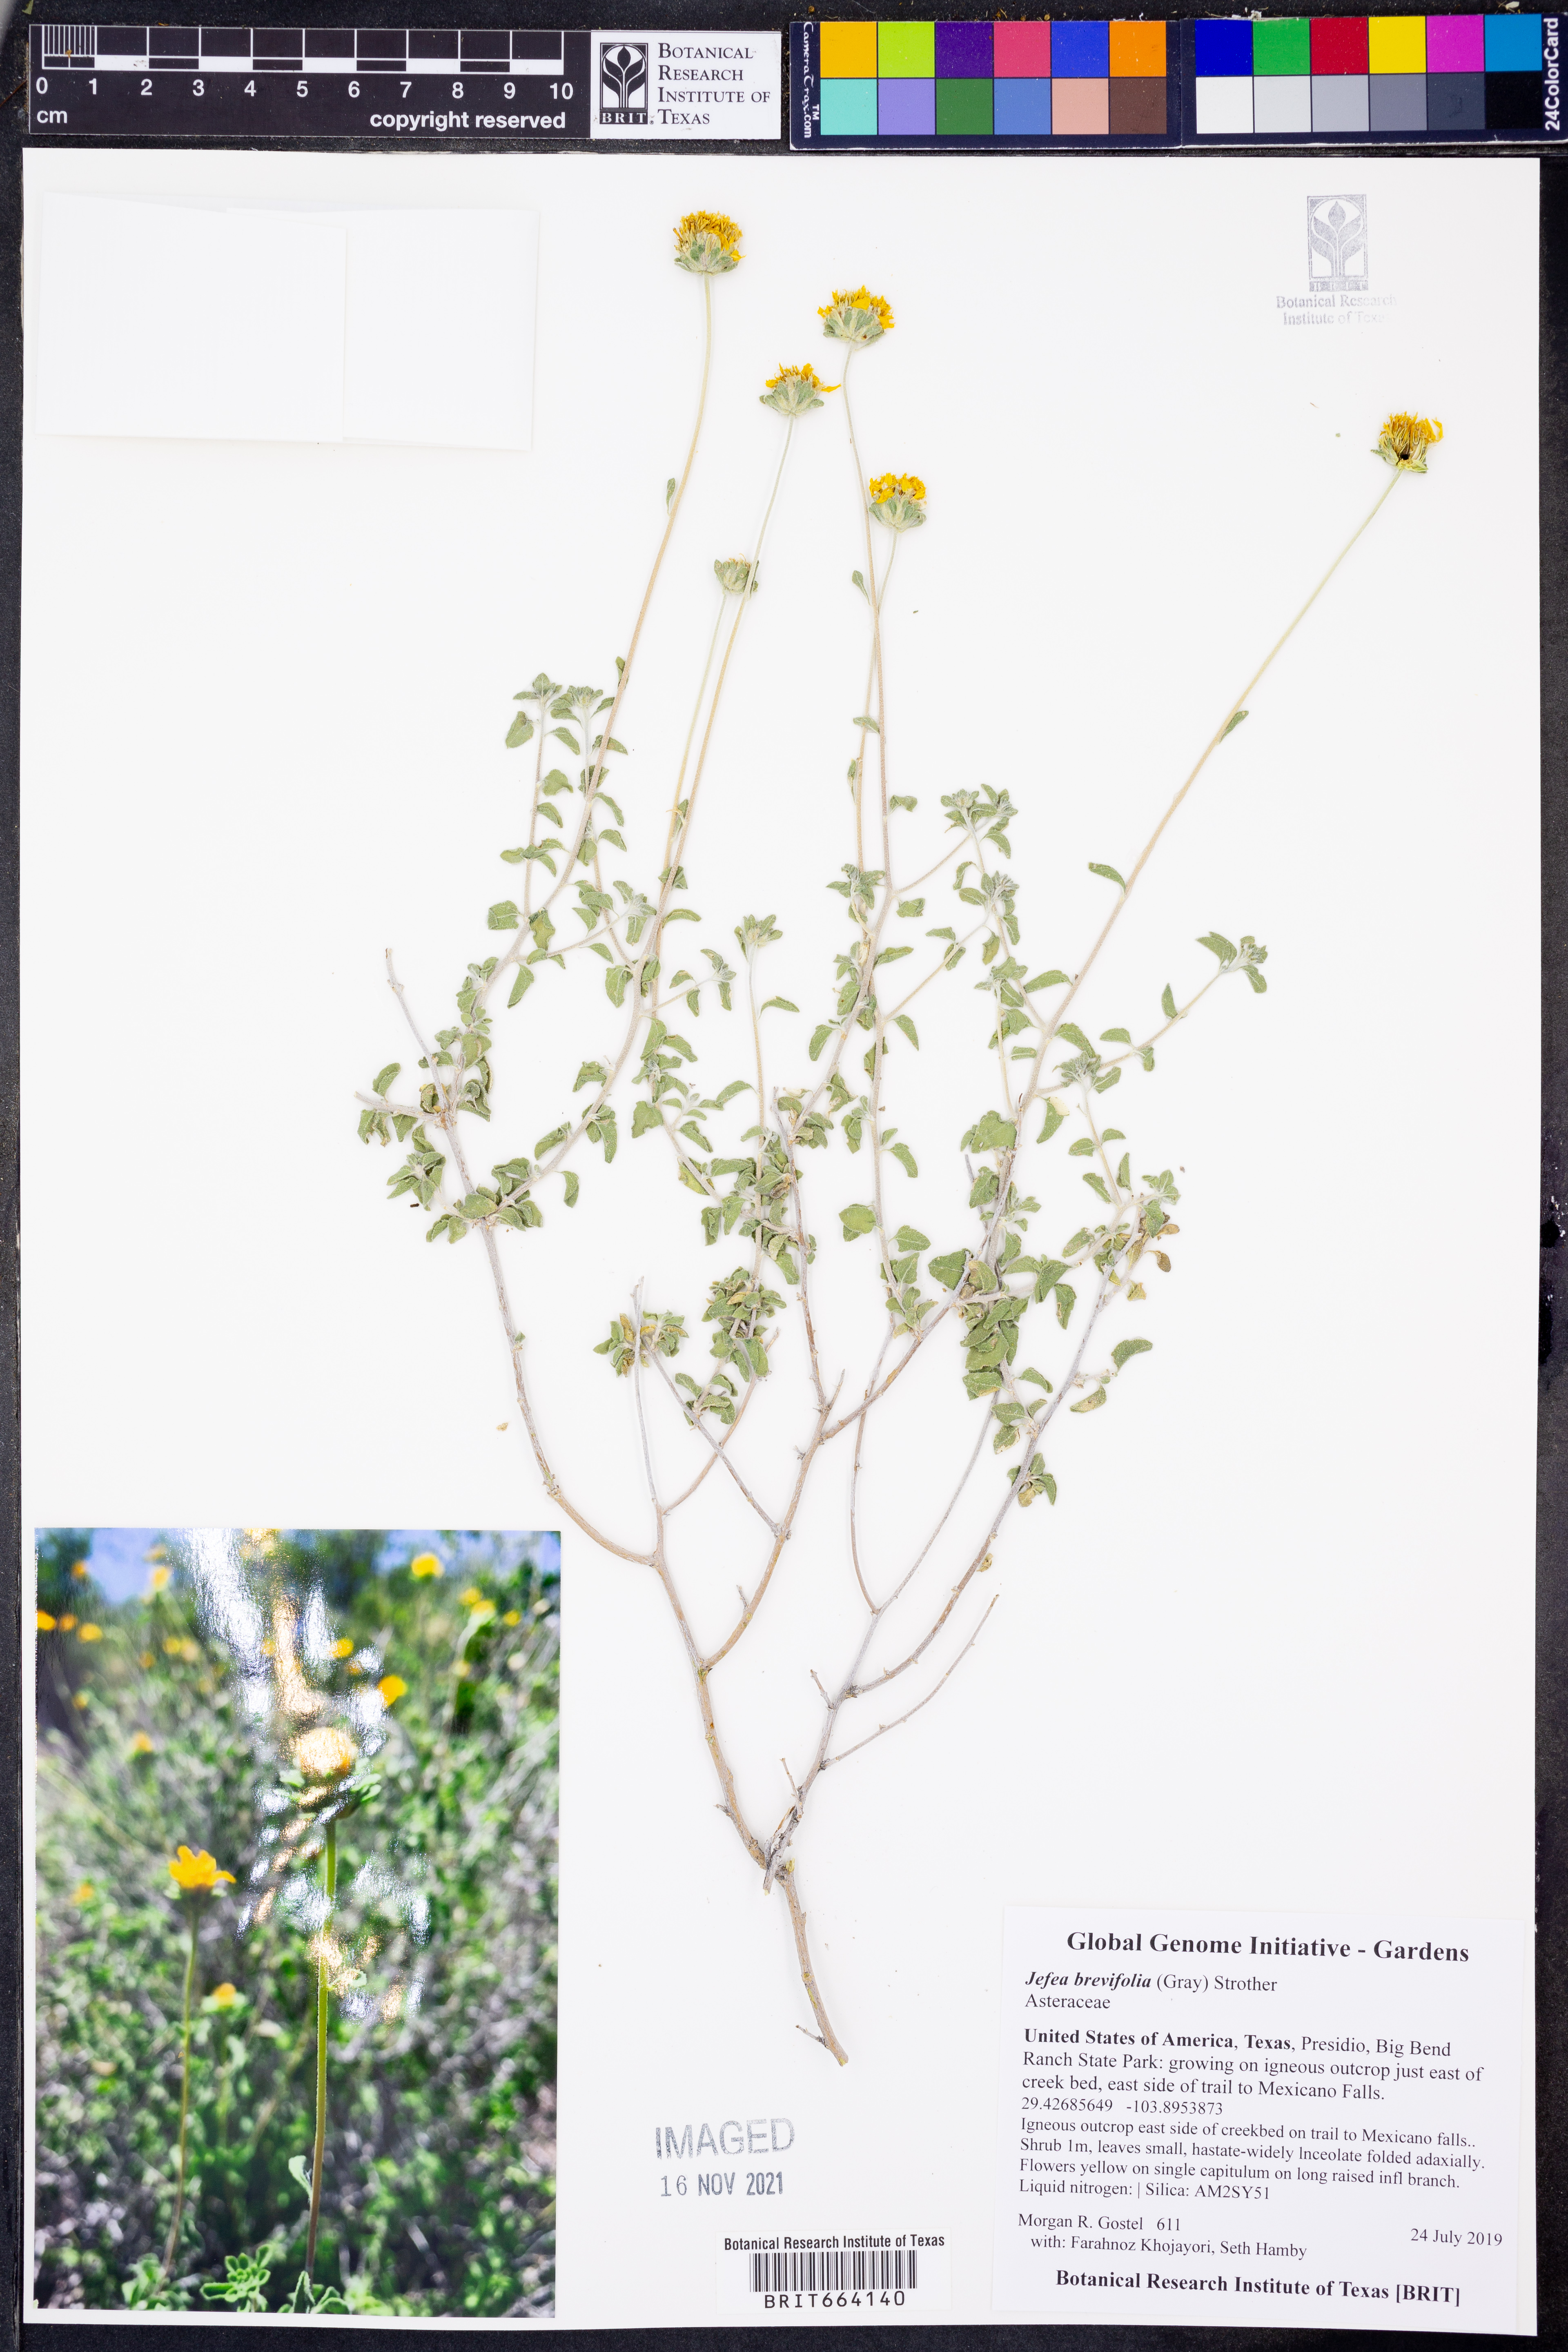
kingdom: Plantae
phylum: Tracheophyta
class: Magnoliopsida
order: Asterales
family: Asteraceae
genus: Jefea
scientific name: Jefea brevifolia
